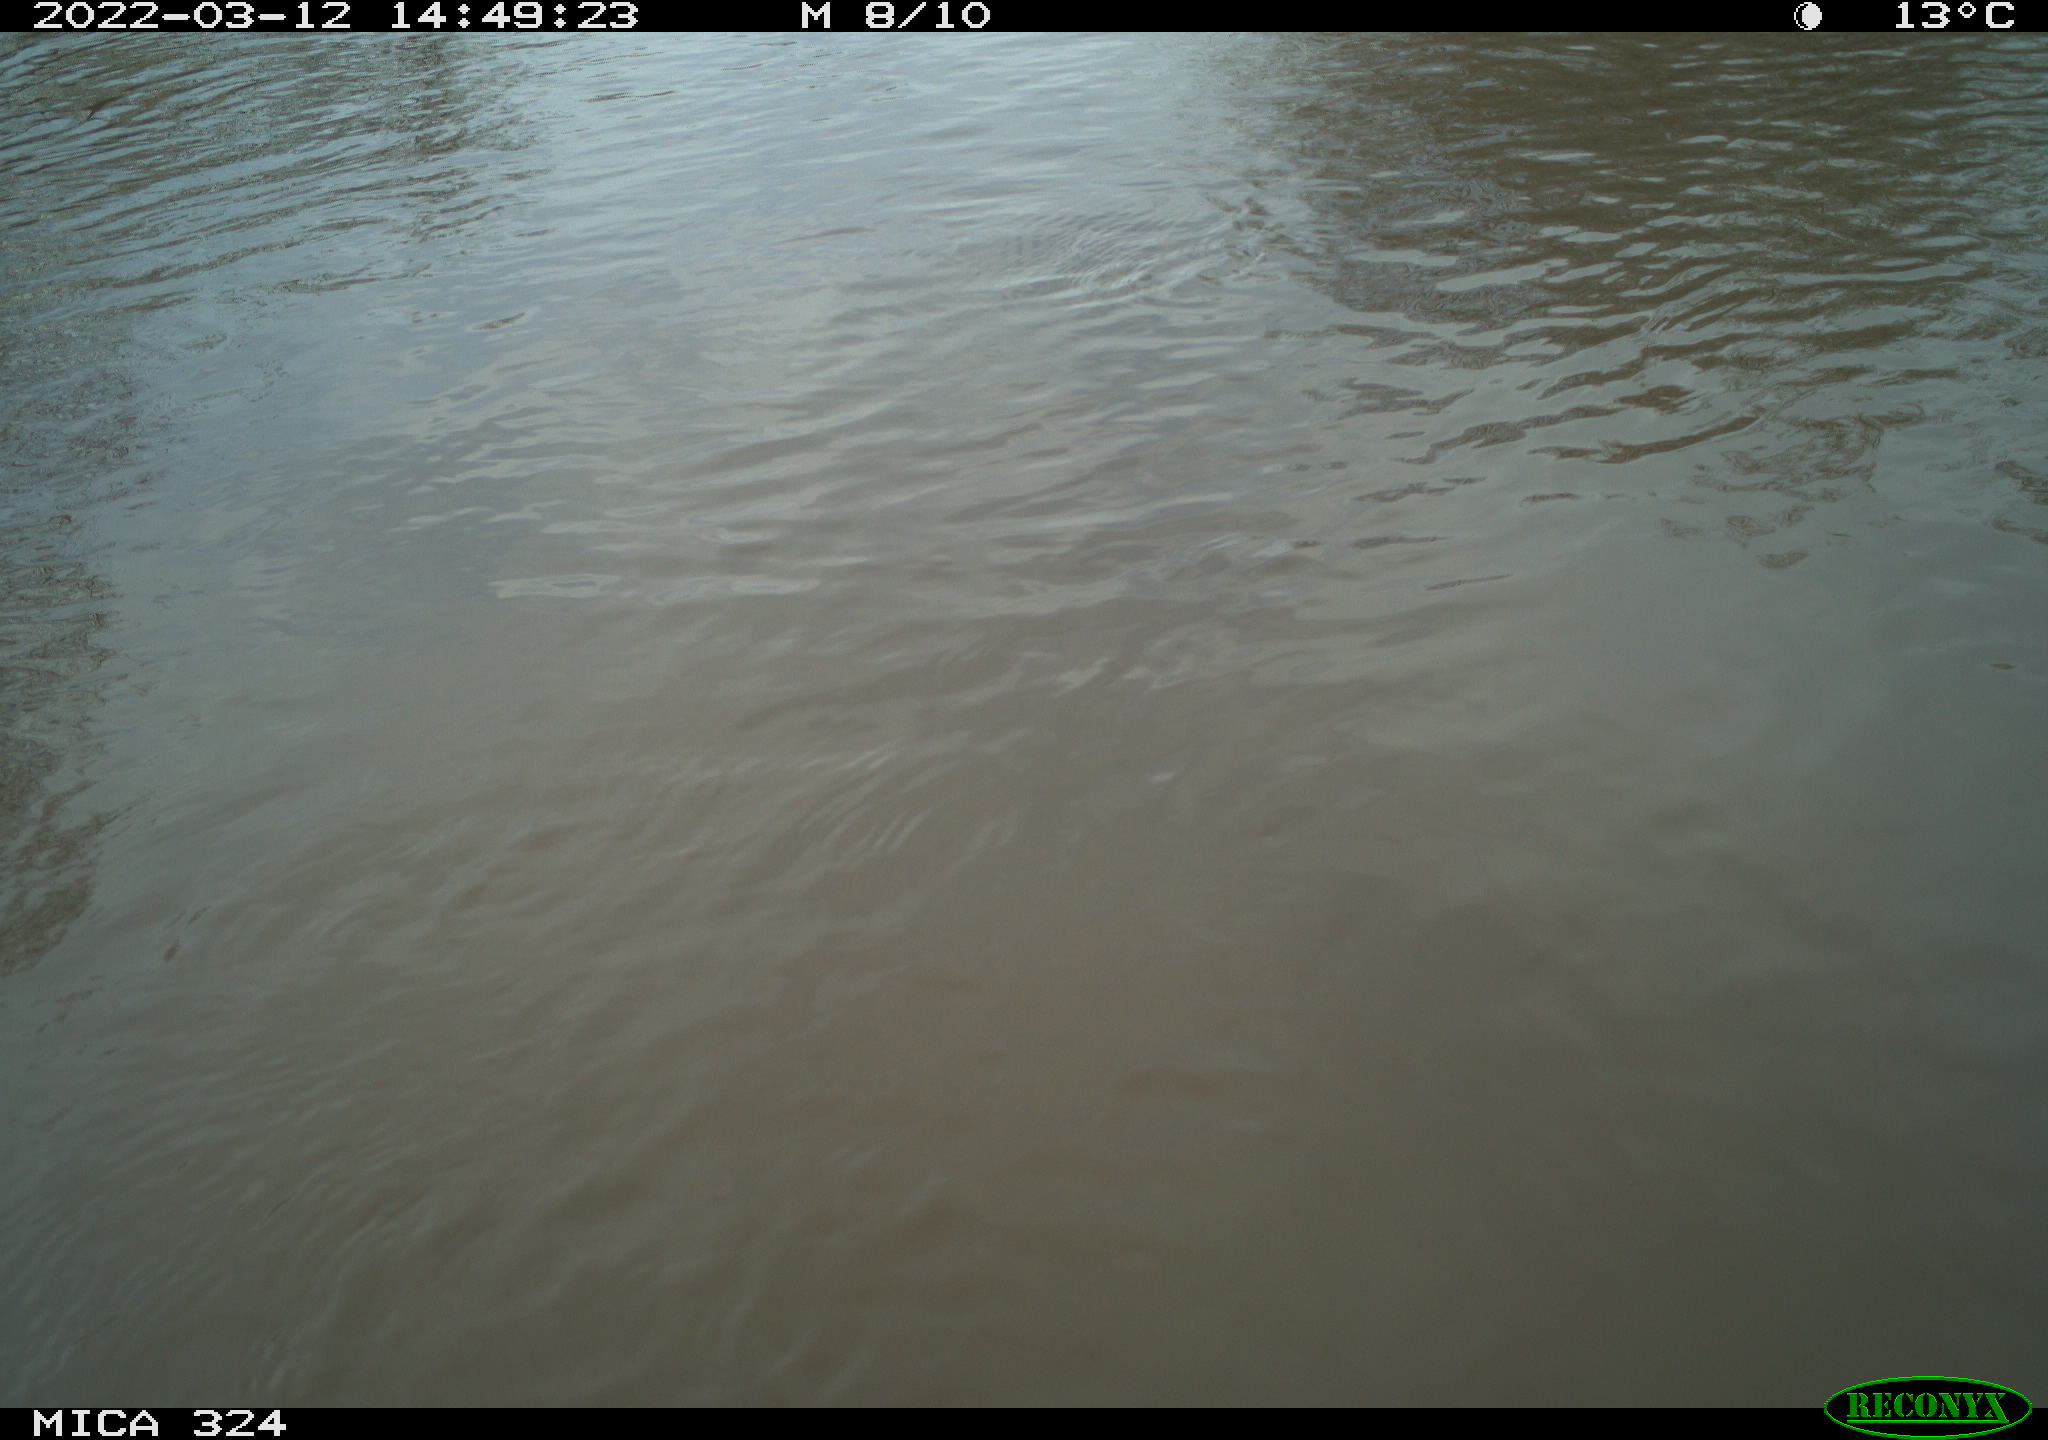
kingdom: Animalia
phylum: Chordata
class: Mammalia
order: Rodentia
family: Cricetidae
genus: Ondatra
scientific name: Ondatra zibethicus
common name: Muskrat
